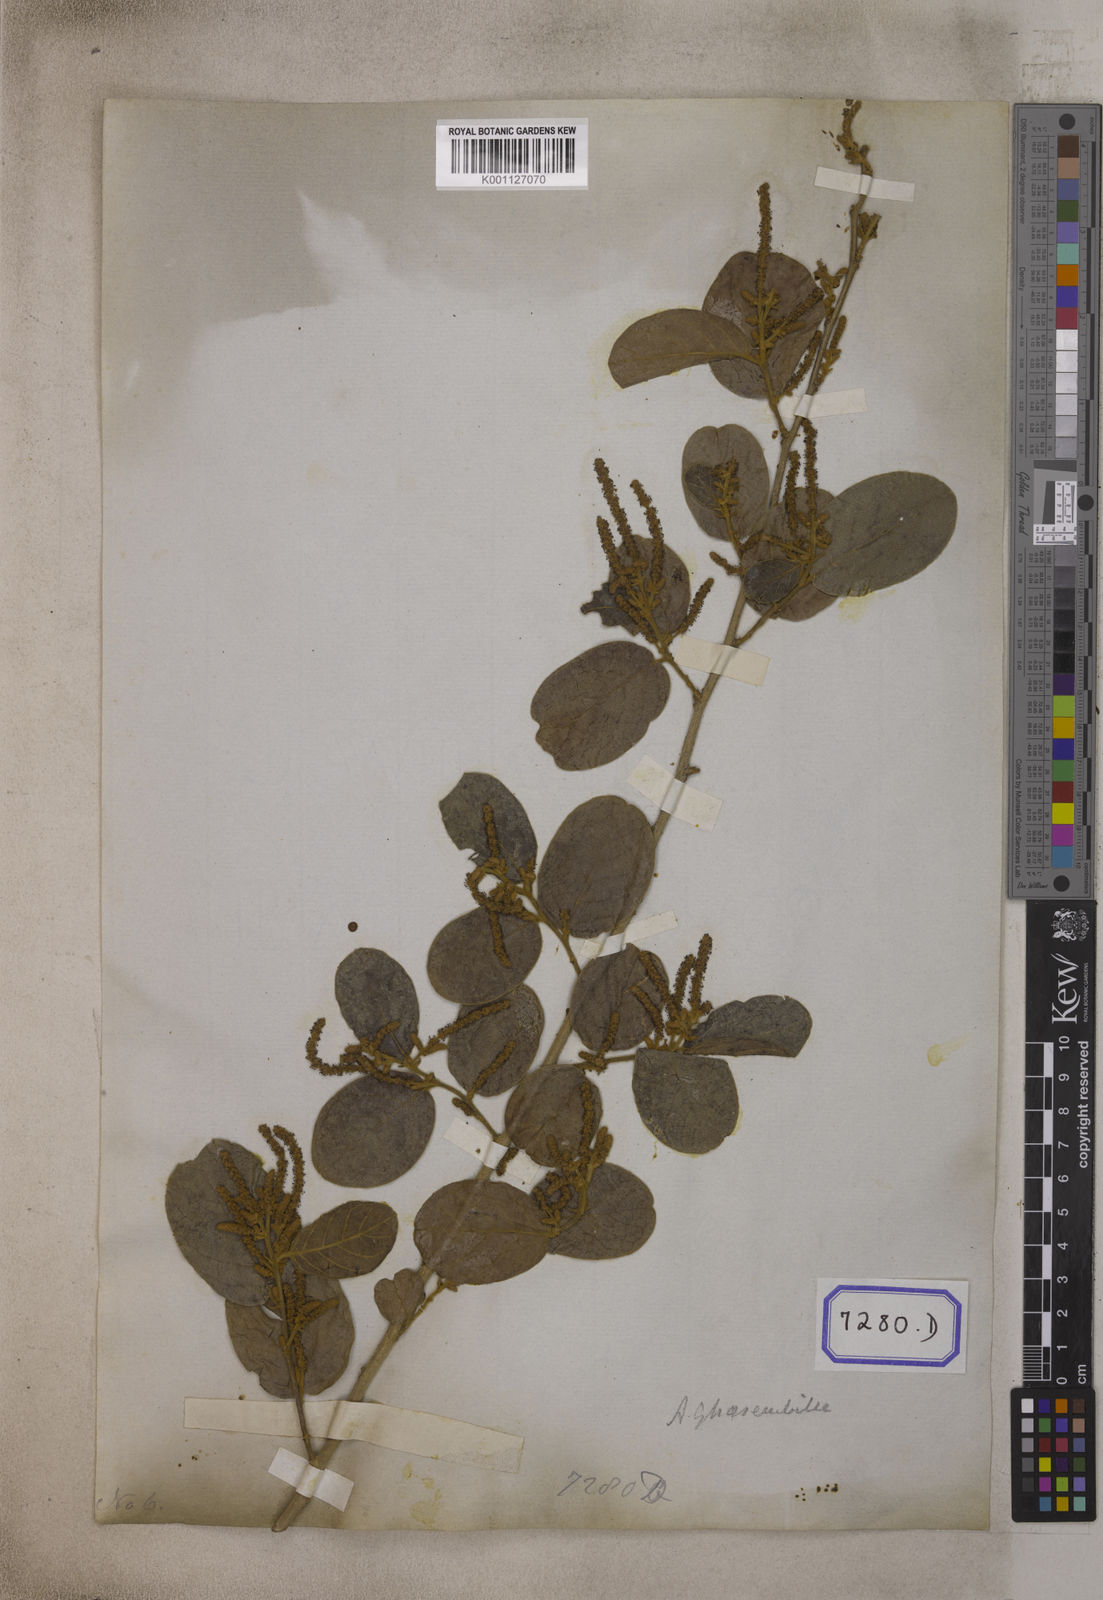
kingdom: Plantae
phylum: Tracheophyta
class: Magnoliopsida
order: Malpighiales
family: Phyllanthaceae
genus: Antidesma
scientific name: Antidesma
